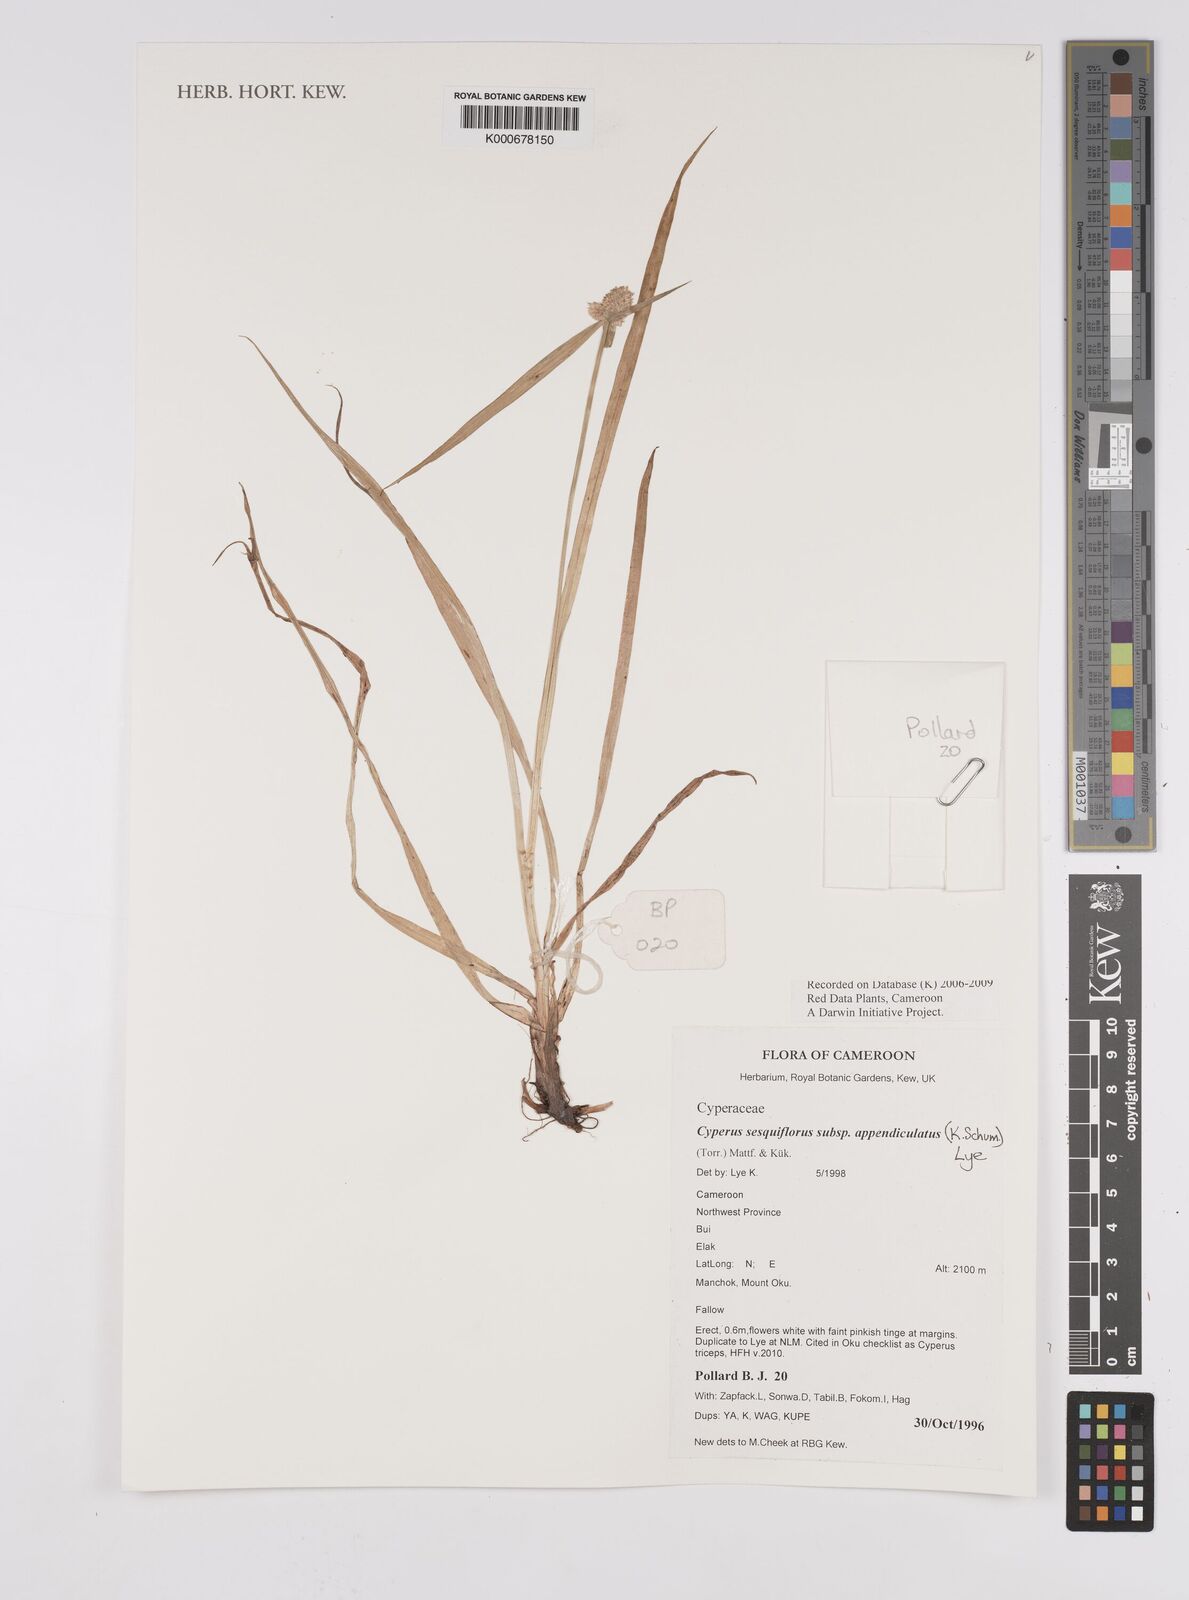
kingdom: Plantae
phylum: Tracheophyta
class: Liliopsida
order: Poales
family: Cyperaceae
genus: Cyperus
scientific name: Cyperus sesquiflorus
